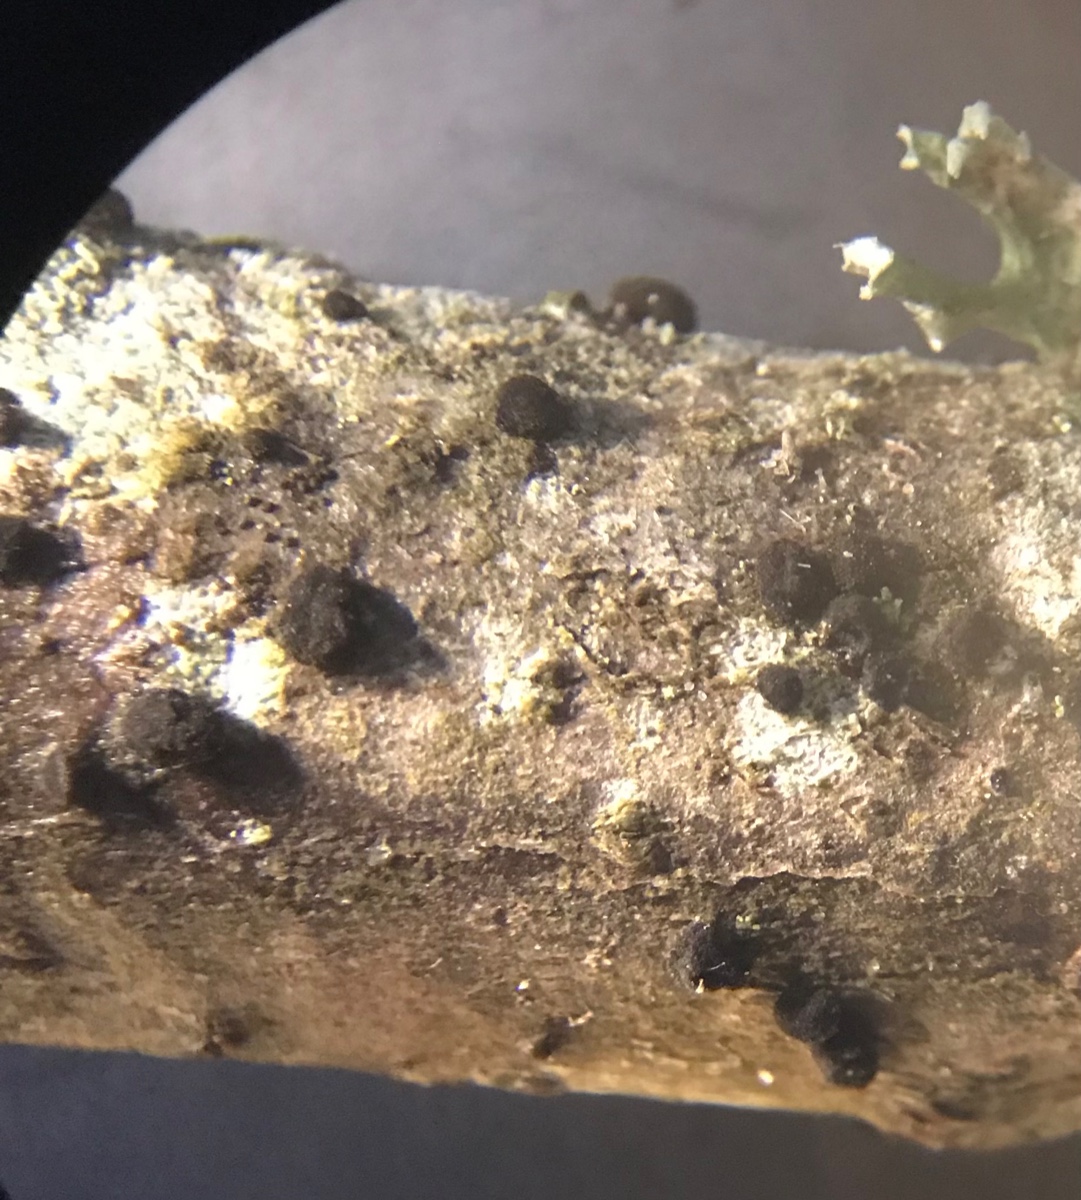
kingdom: Fungi
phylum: Ascomycota
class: Dothideomycetes
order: Pleosporales
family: Massarinaceae
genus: Helminthosporium
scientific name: Helminthosporium oligosporum
